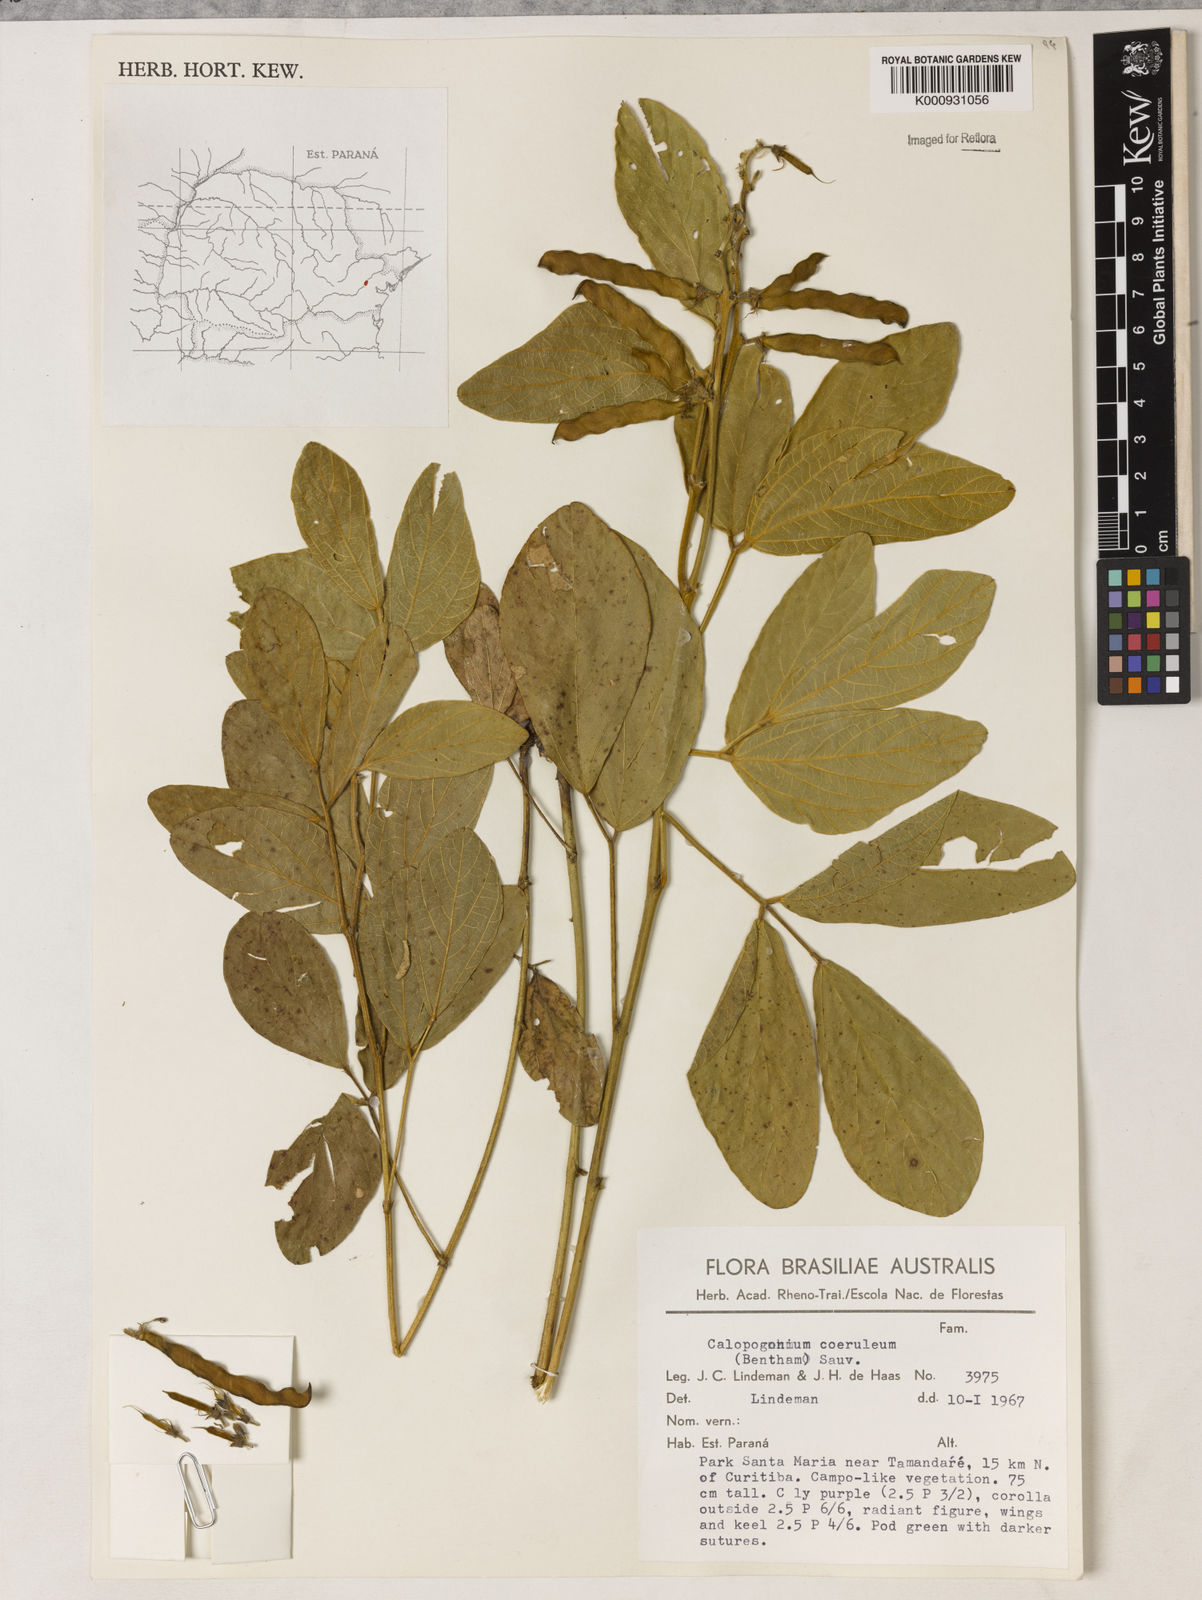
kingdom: Plantae
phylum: Tracheophyta
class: Magnoliopsida
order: Fabales
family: Fabaceae
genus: Calopogonium
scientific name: Calopogonium caeruleum
